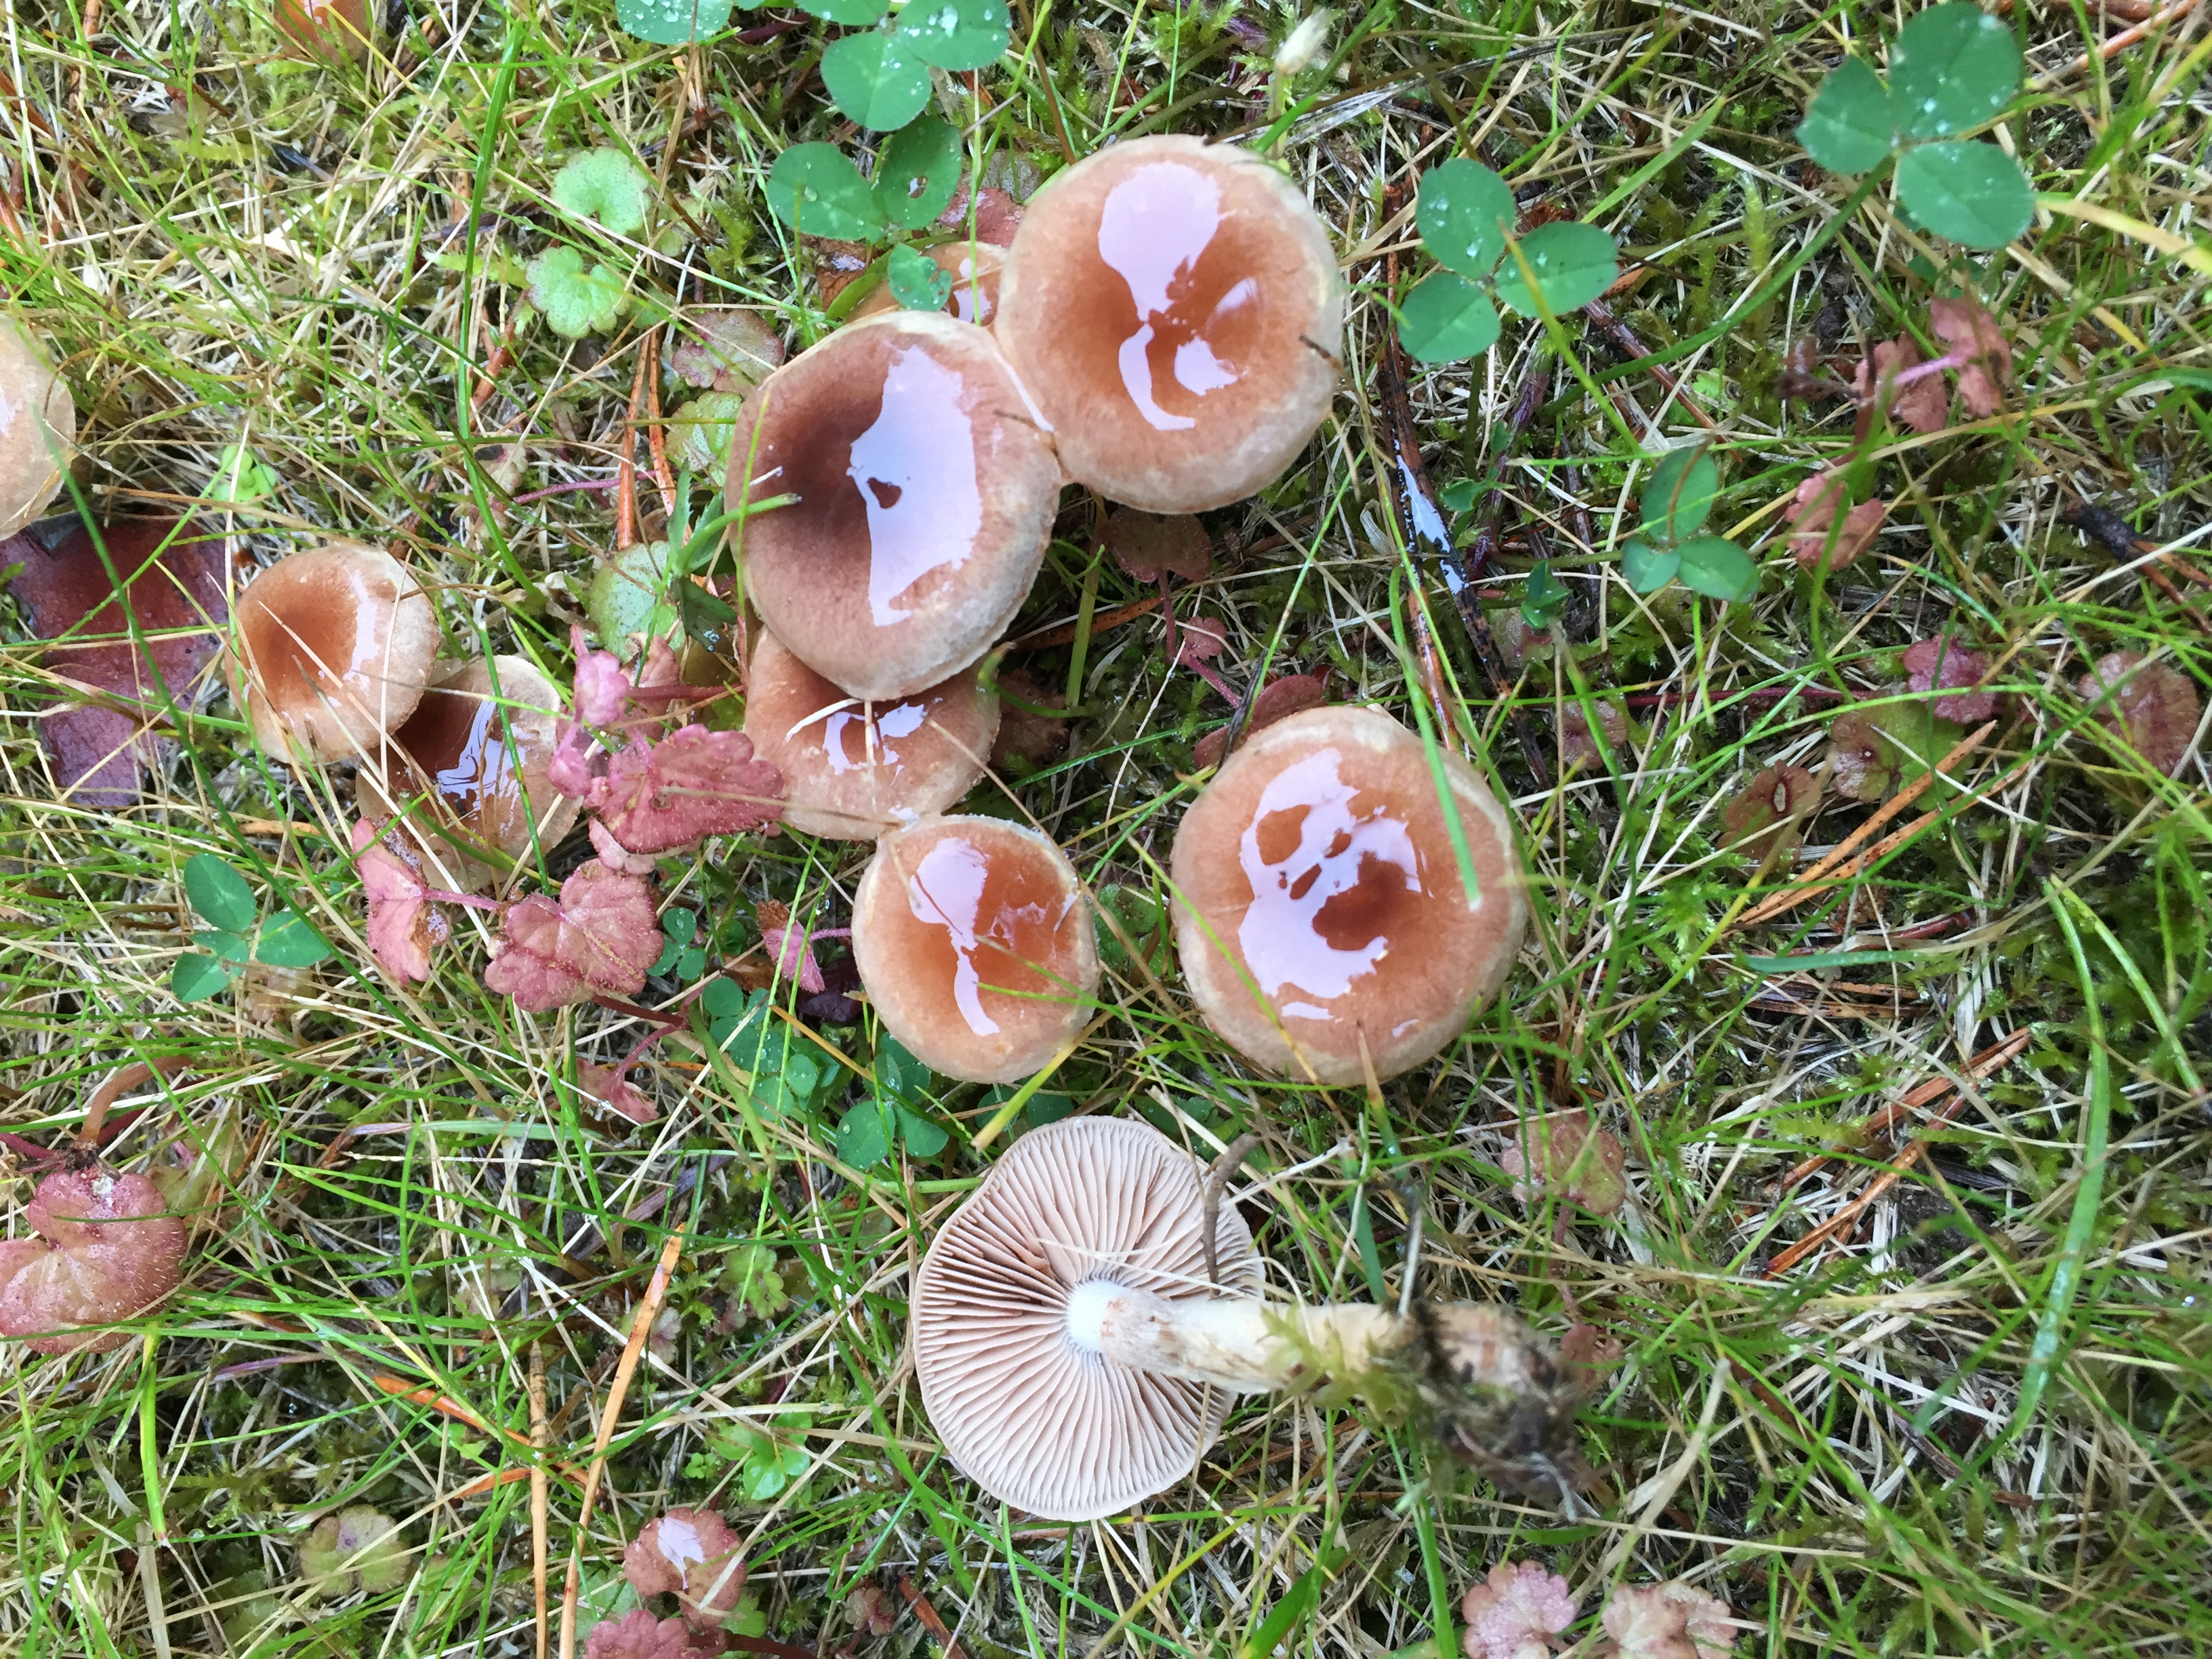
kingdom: Fungi
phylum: Basidiomycota
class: Agaricomycetes
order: Agaricales
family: Hymenogastraceae
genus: Hebeloma
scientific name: Hebeloma mesophaeum
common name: Veiled poisonpie
